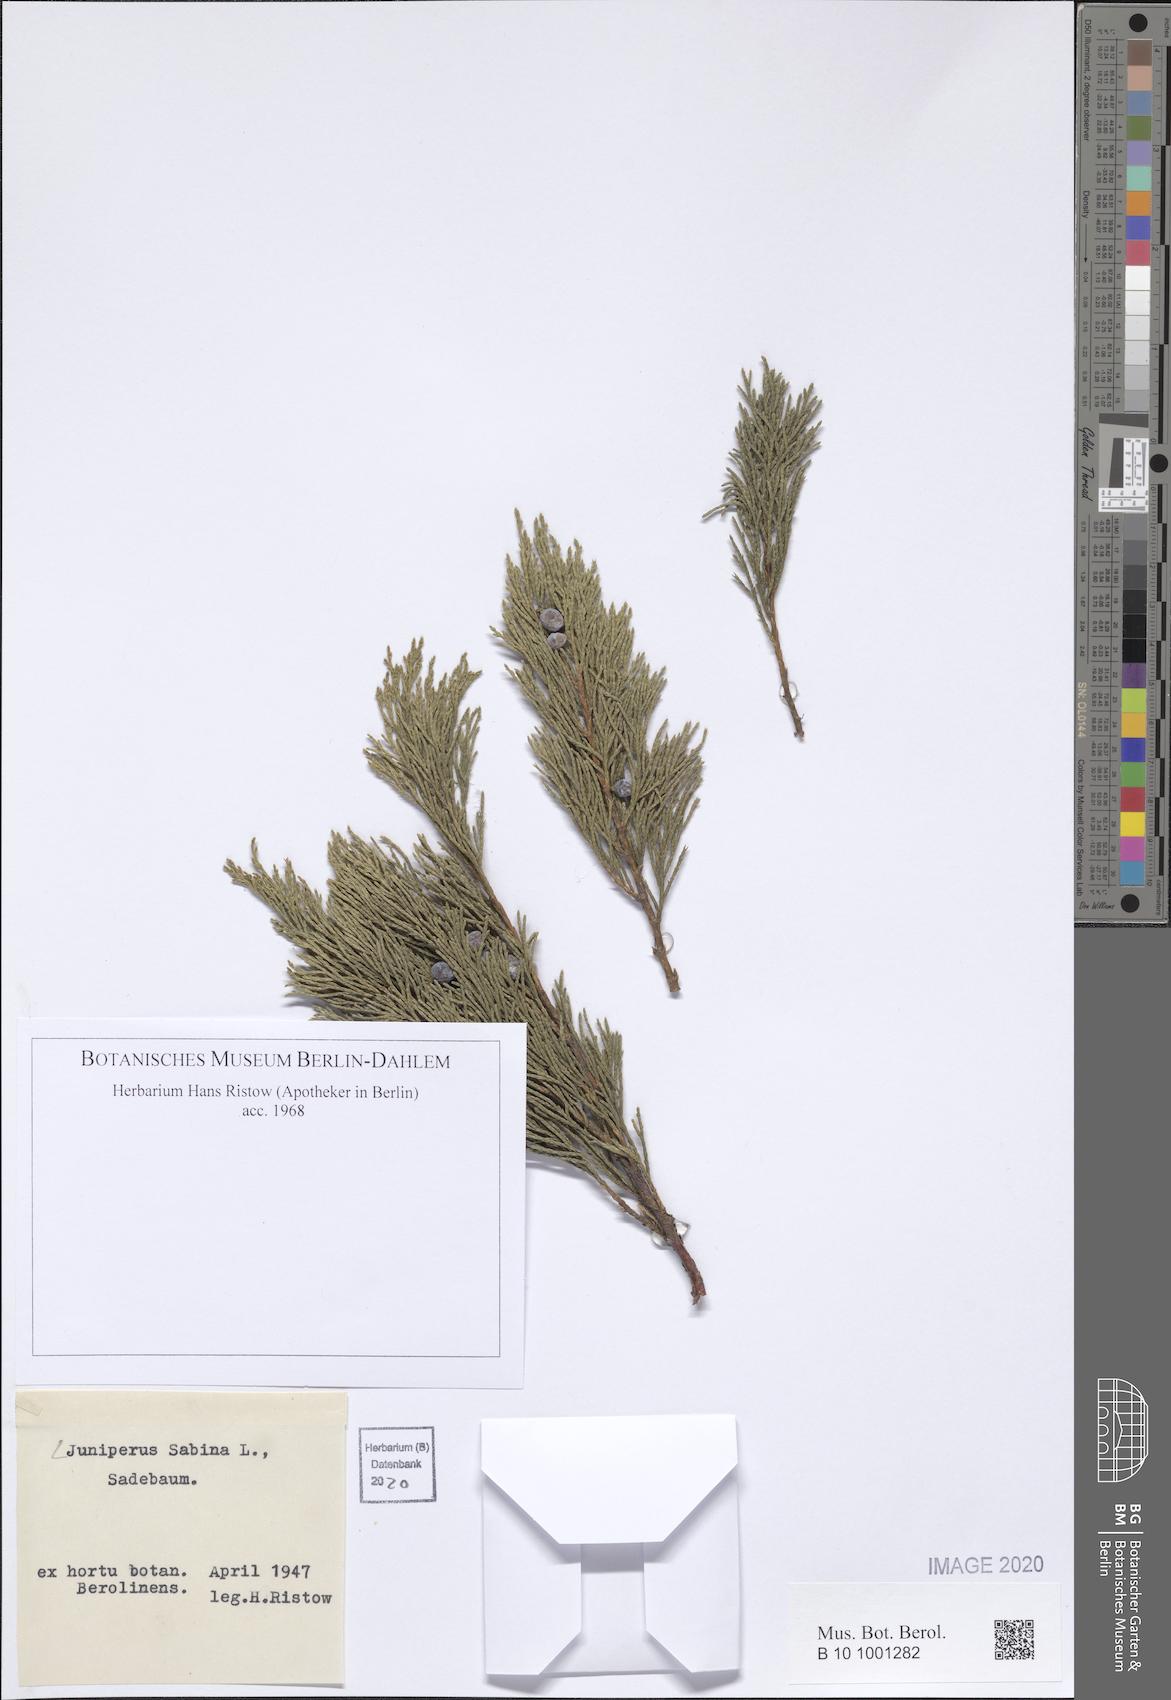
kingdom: Plantae
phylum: Tracheophyta
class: Pinopsida
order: Pinales
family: Cupressaceae
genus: Juniperus
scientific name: Juniperus sabina
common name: Savin
